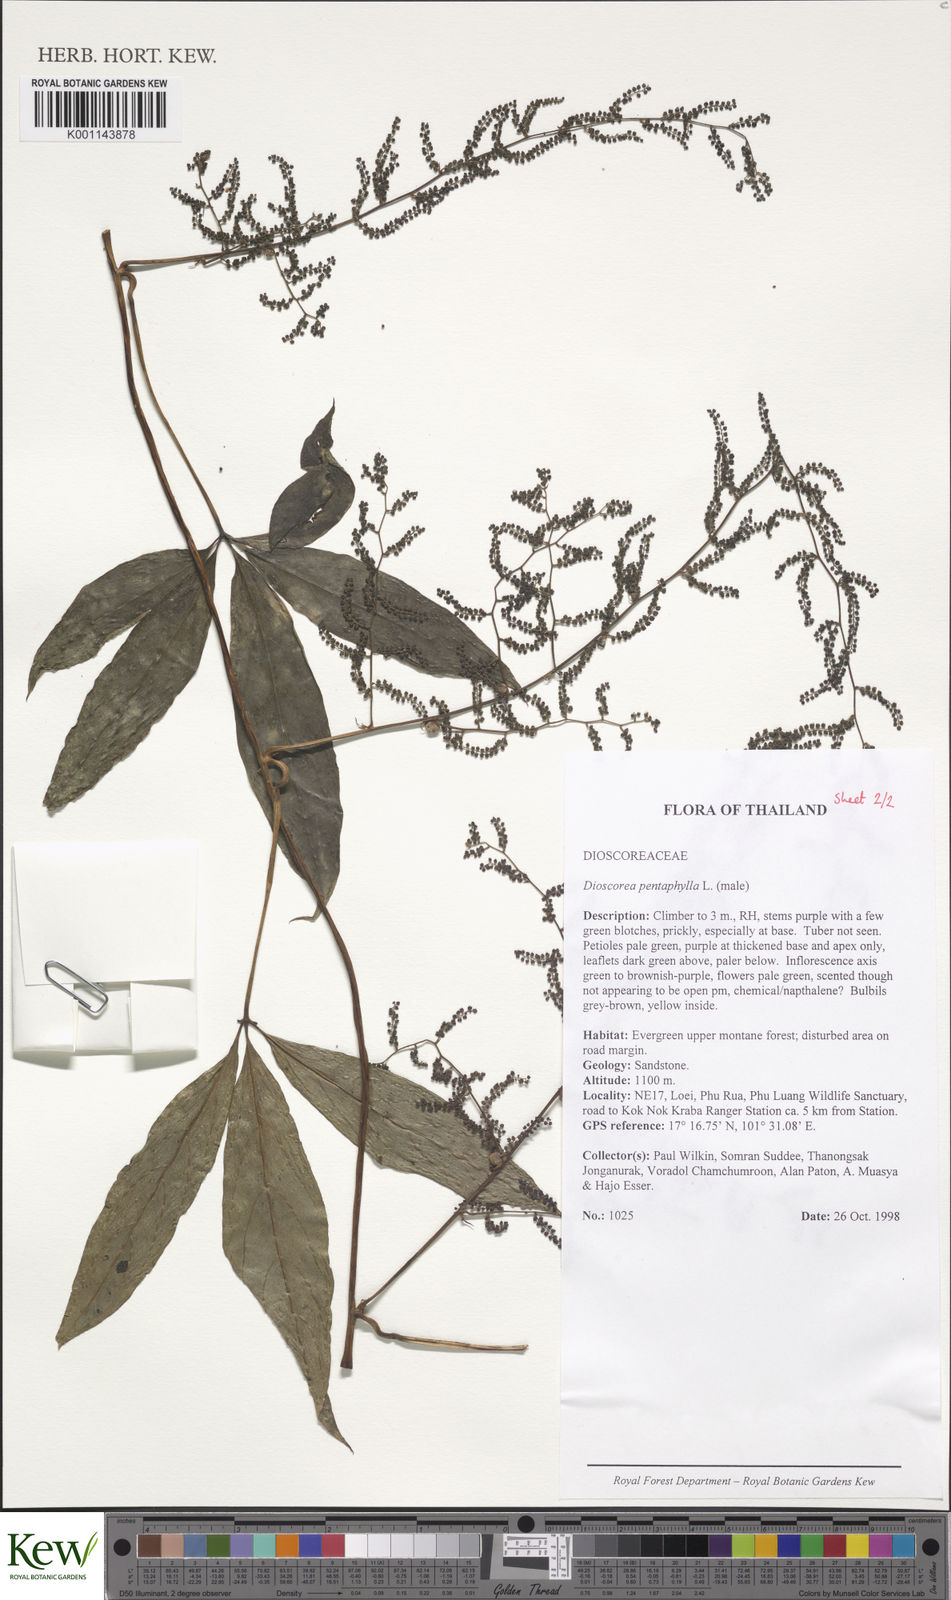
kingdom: Plantae
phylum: Tracheophyta
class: Liliopsida
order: Dioscoreales
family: Dioscoreaceae
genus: Dioscorea
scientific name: Dioscorea pentaphylla
